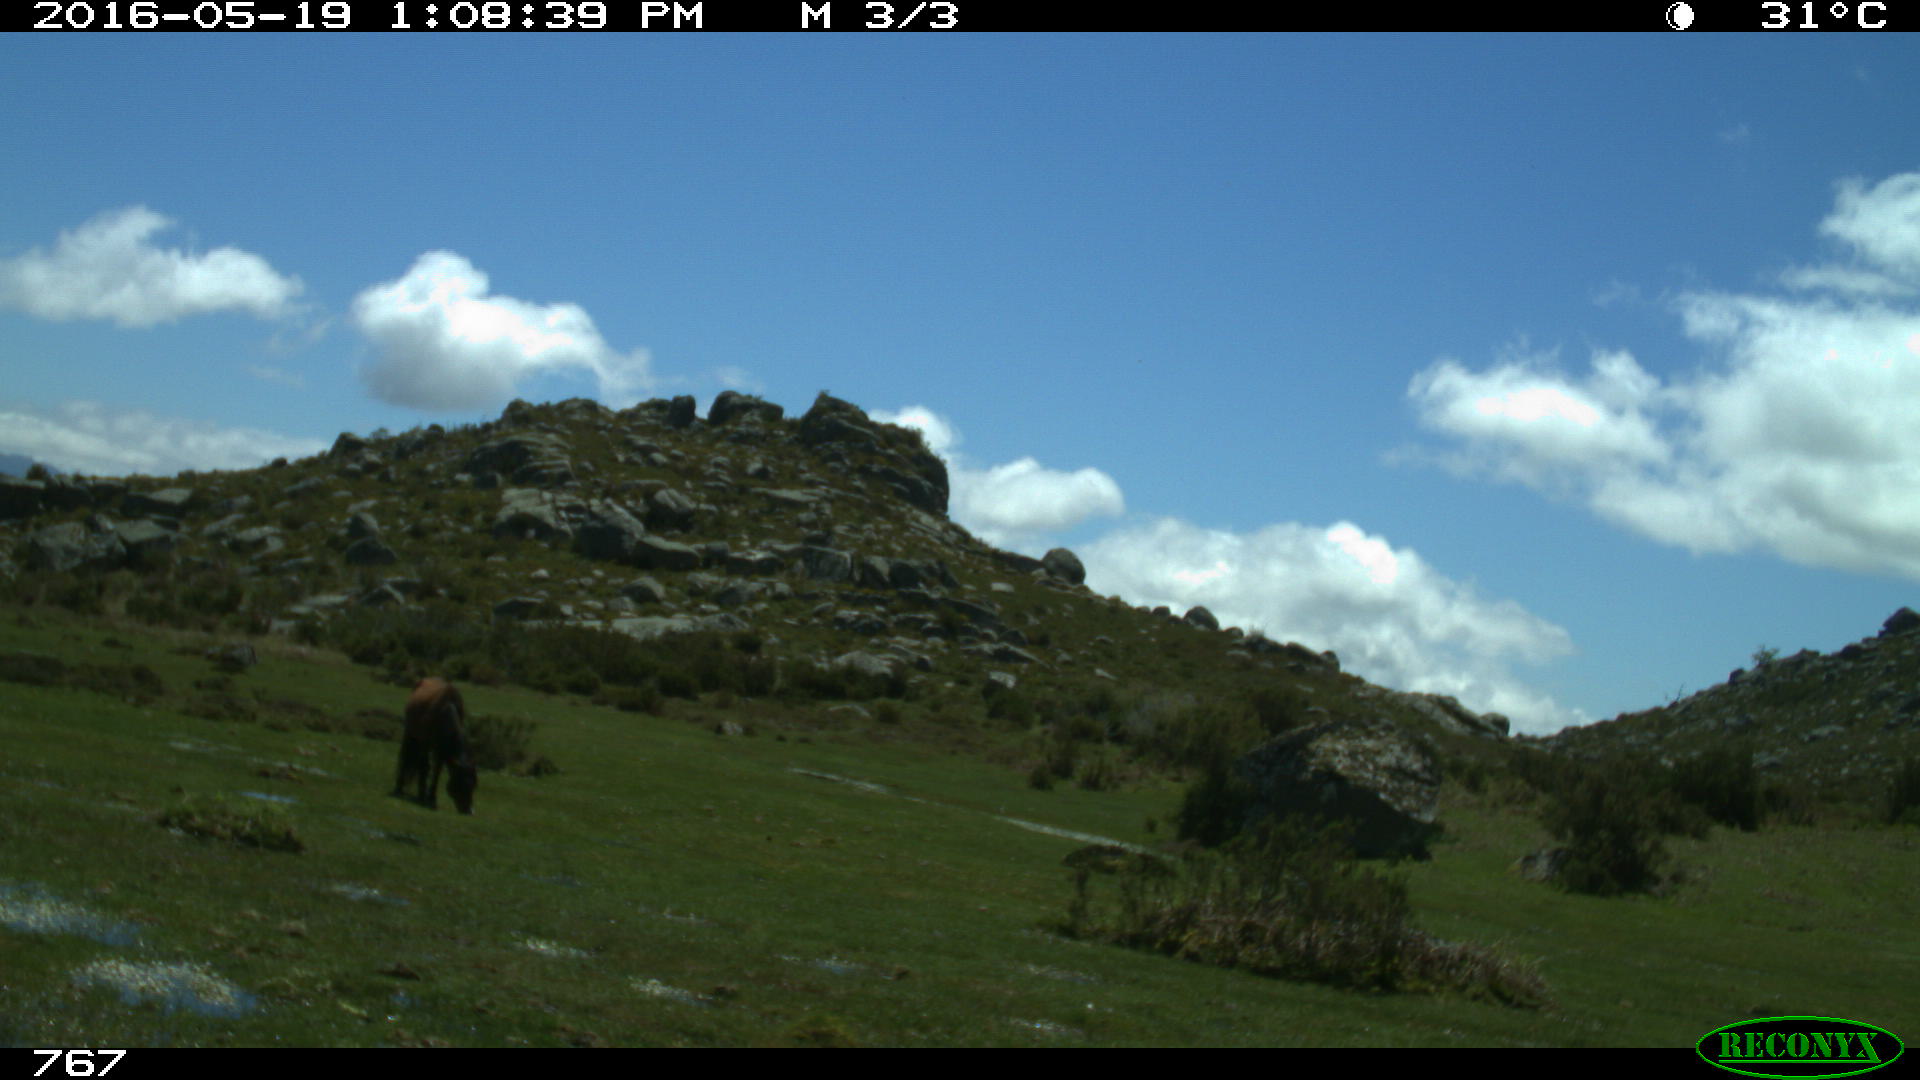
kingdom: Animalia
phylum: Chordata
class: Mammalia
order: Perissodactyla
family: Equidae
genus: Equus
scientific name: Equus caballus
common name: Horse
